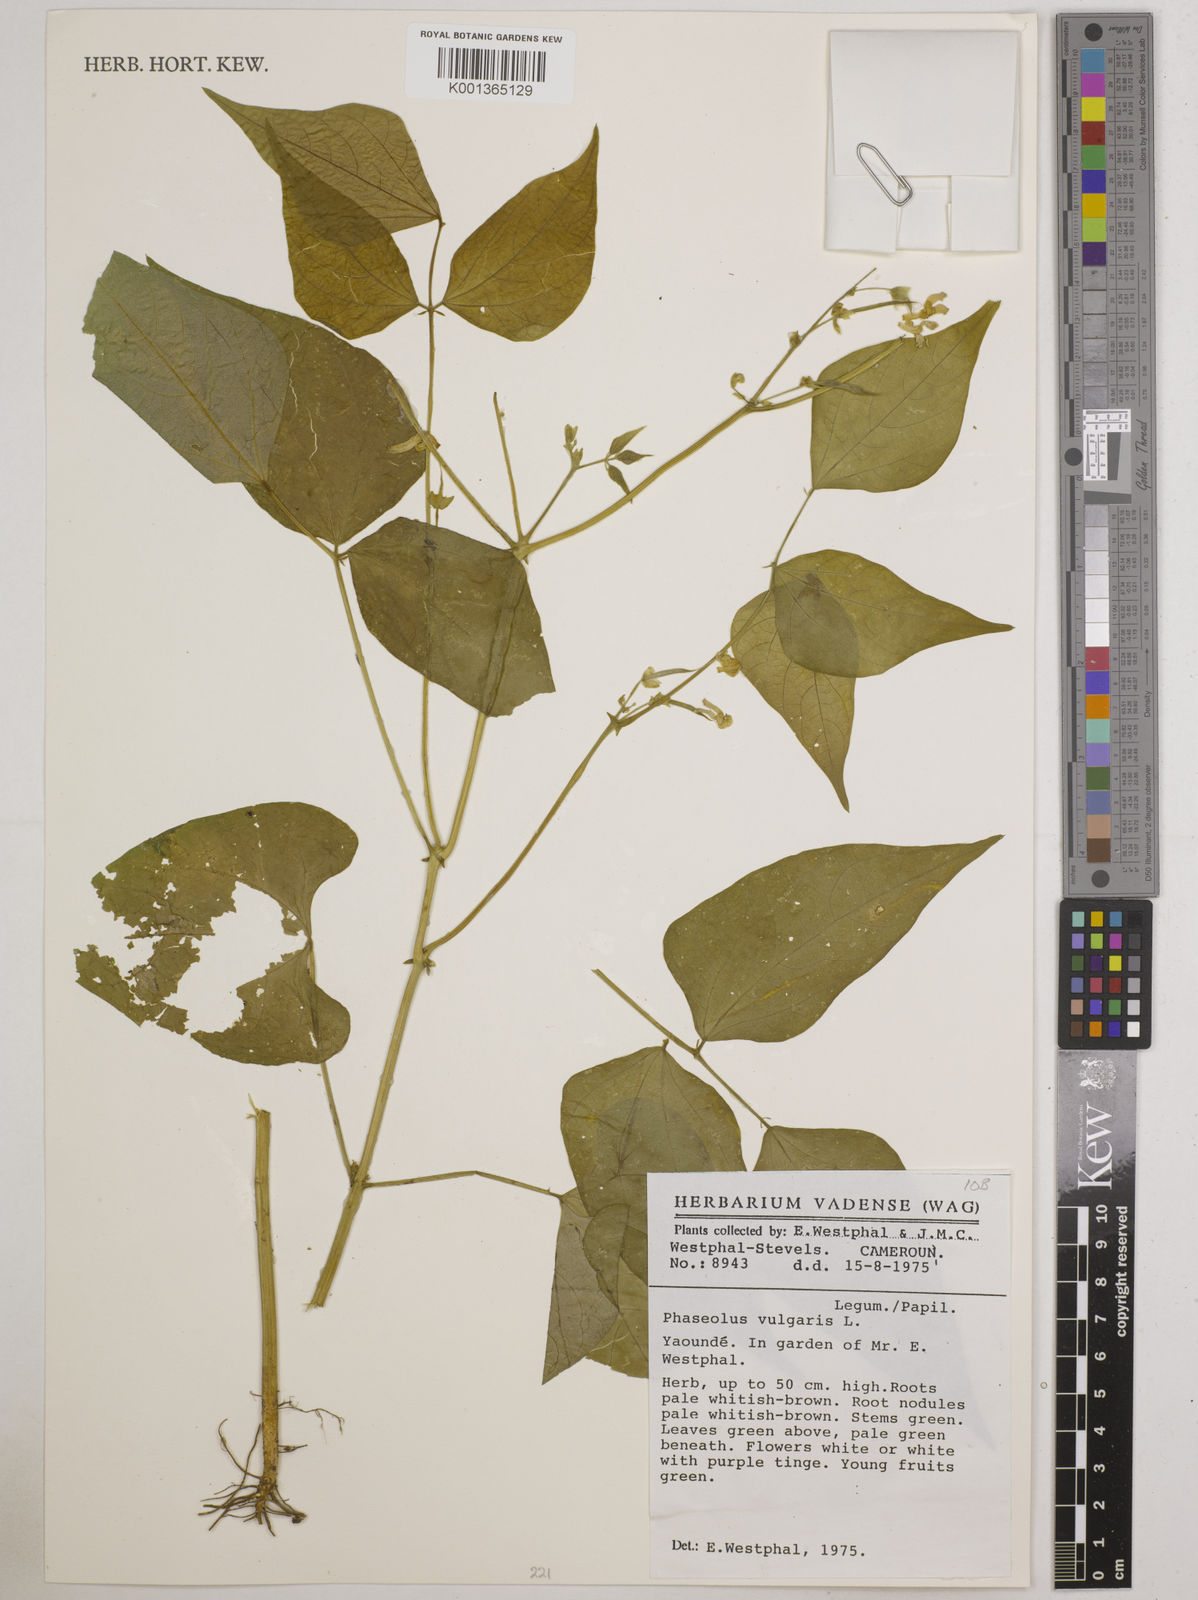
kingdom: Plantae
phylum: Tracheophyta
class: Magnoliopsida
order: Fabales
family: Fabaceae
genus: Phaseolus
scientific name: Phaseolus vulgaris
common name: Bean
